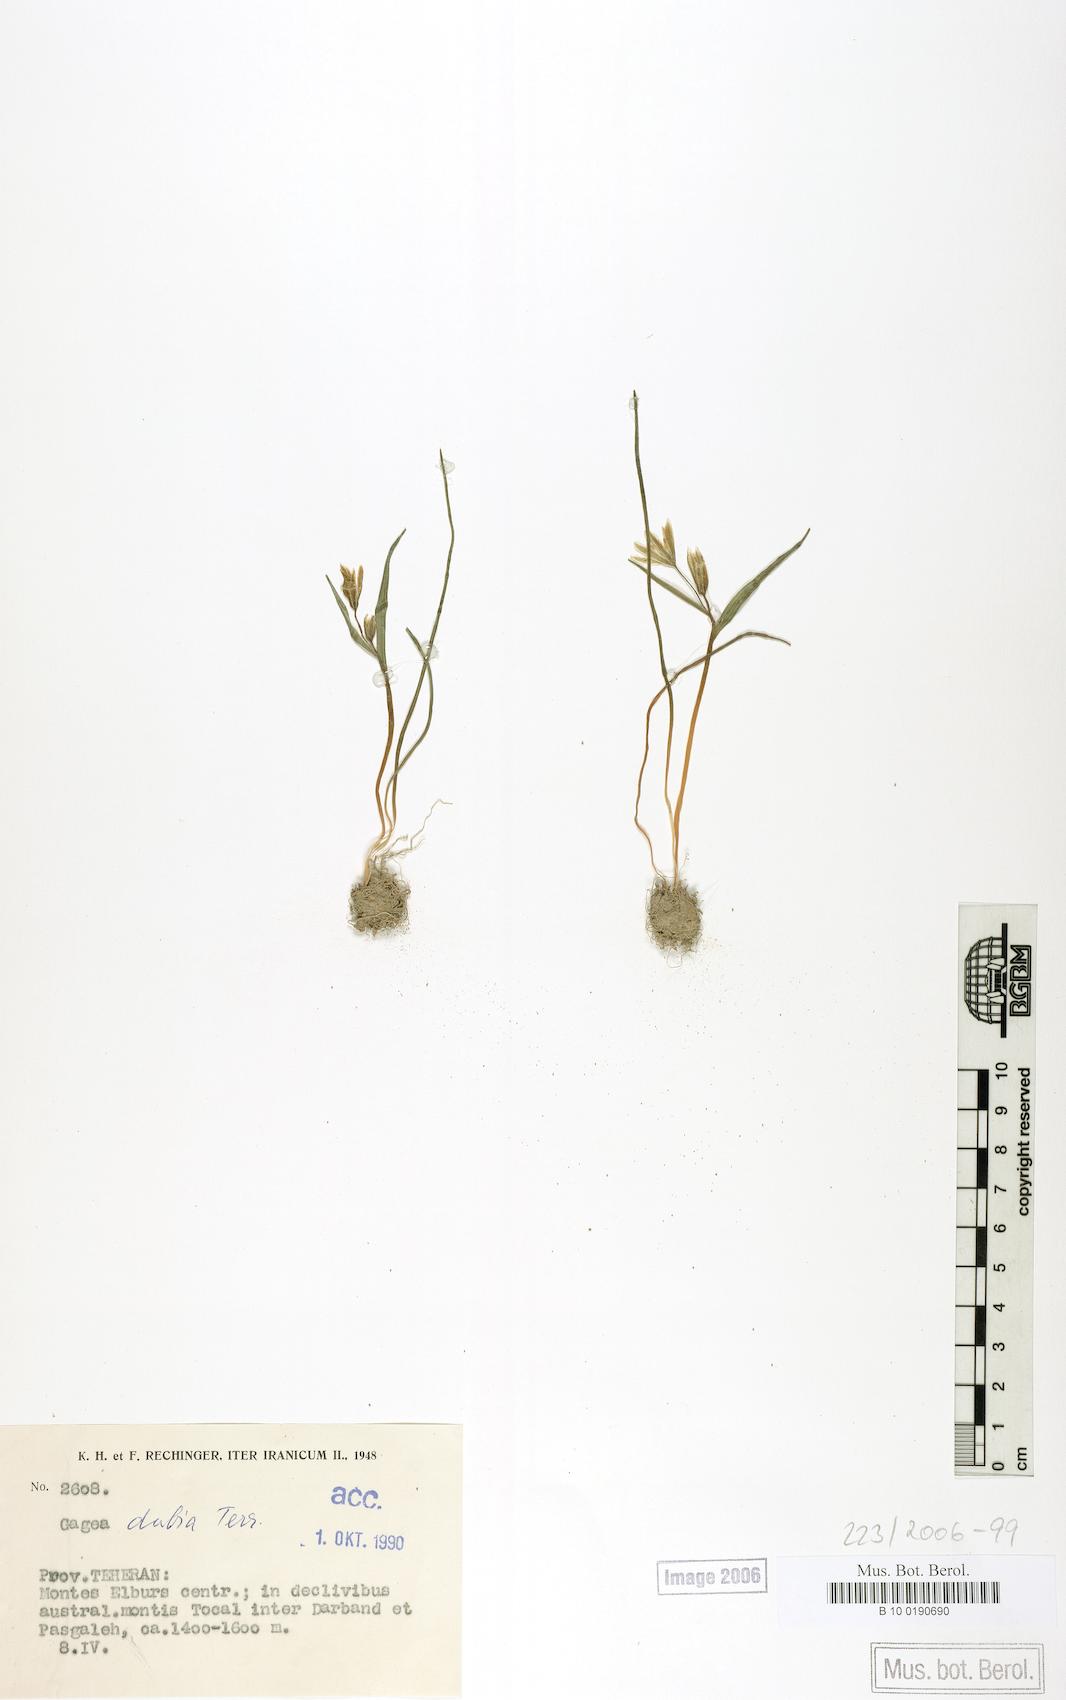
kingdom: Plantae
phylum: Tracheophyta
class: Liliopsida
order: Liliales
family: Liliaceae
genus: Gagea
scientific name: Gagea dubia
